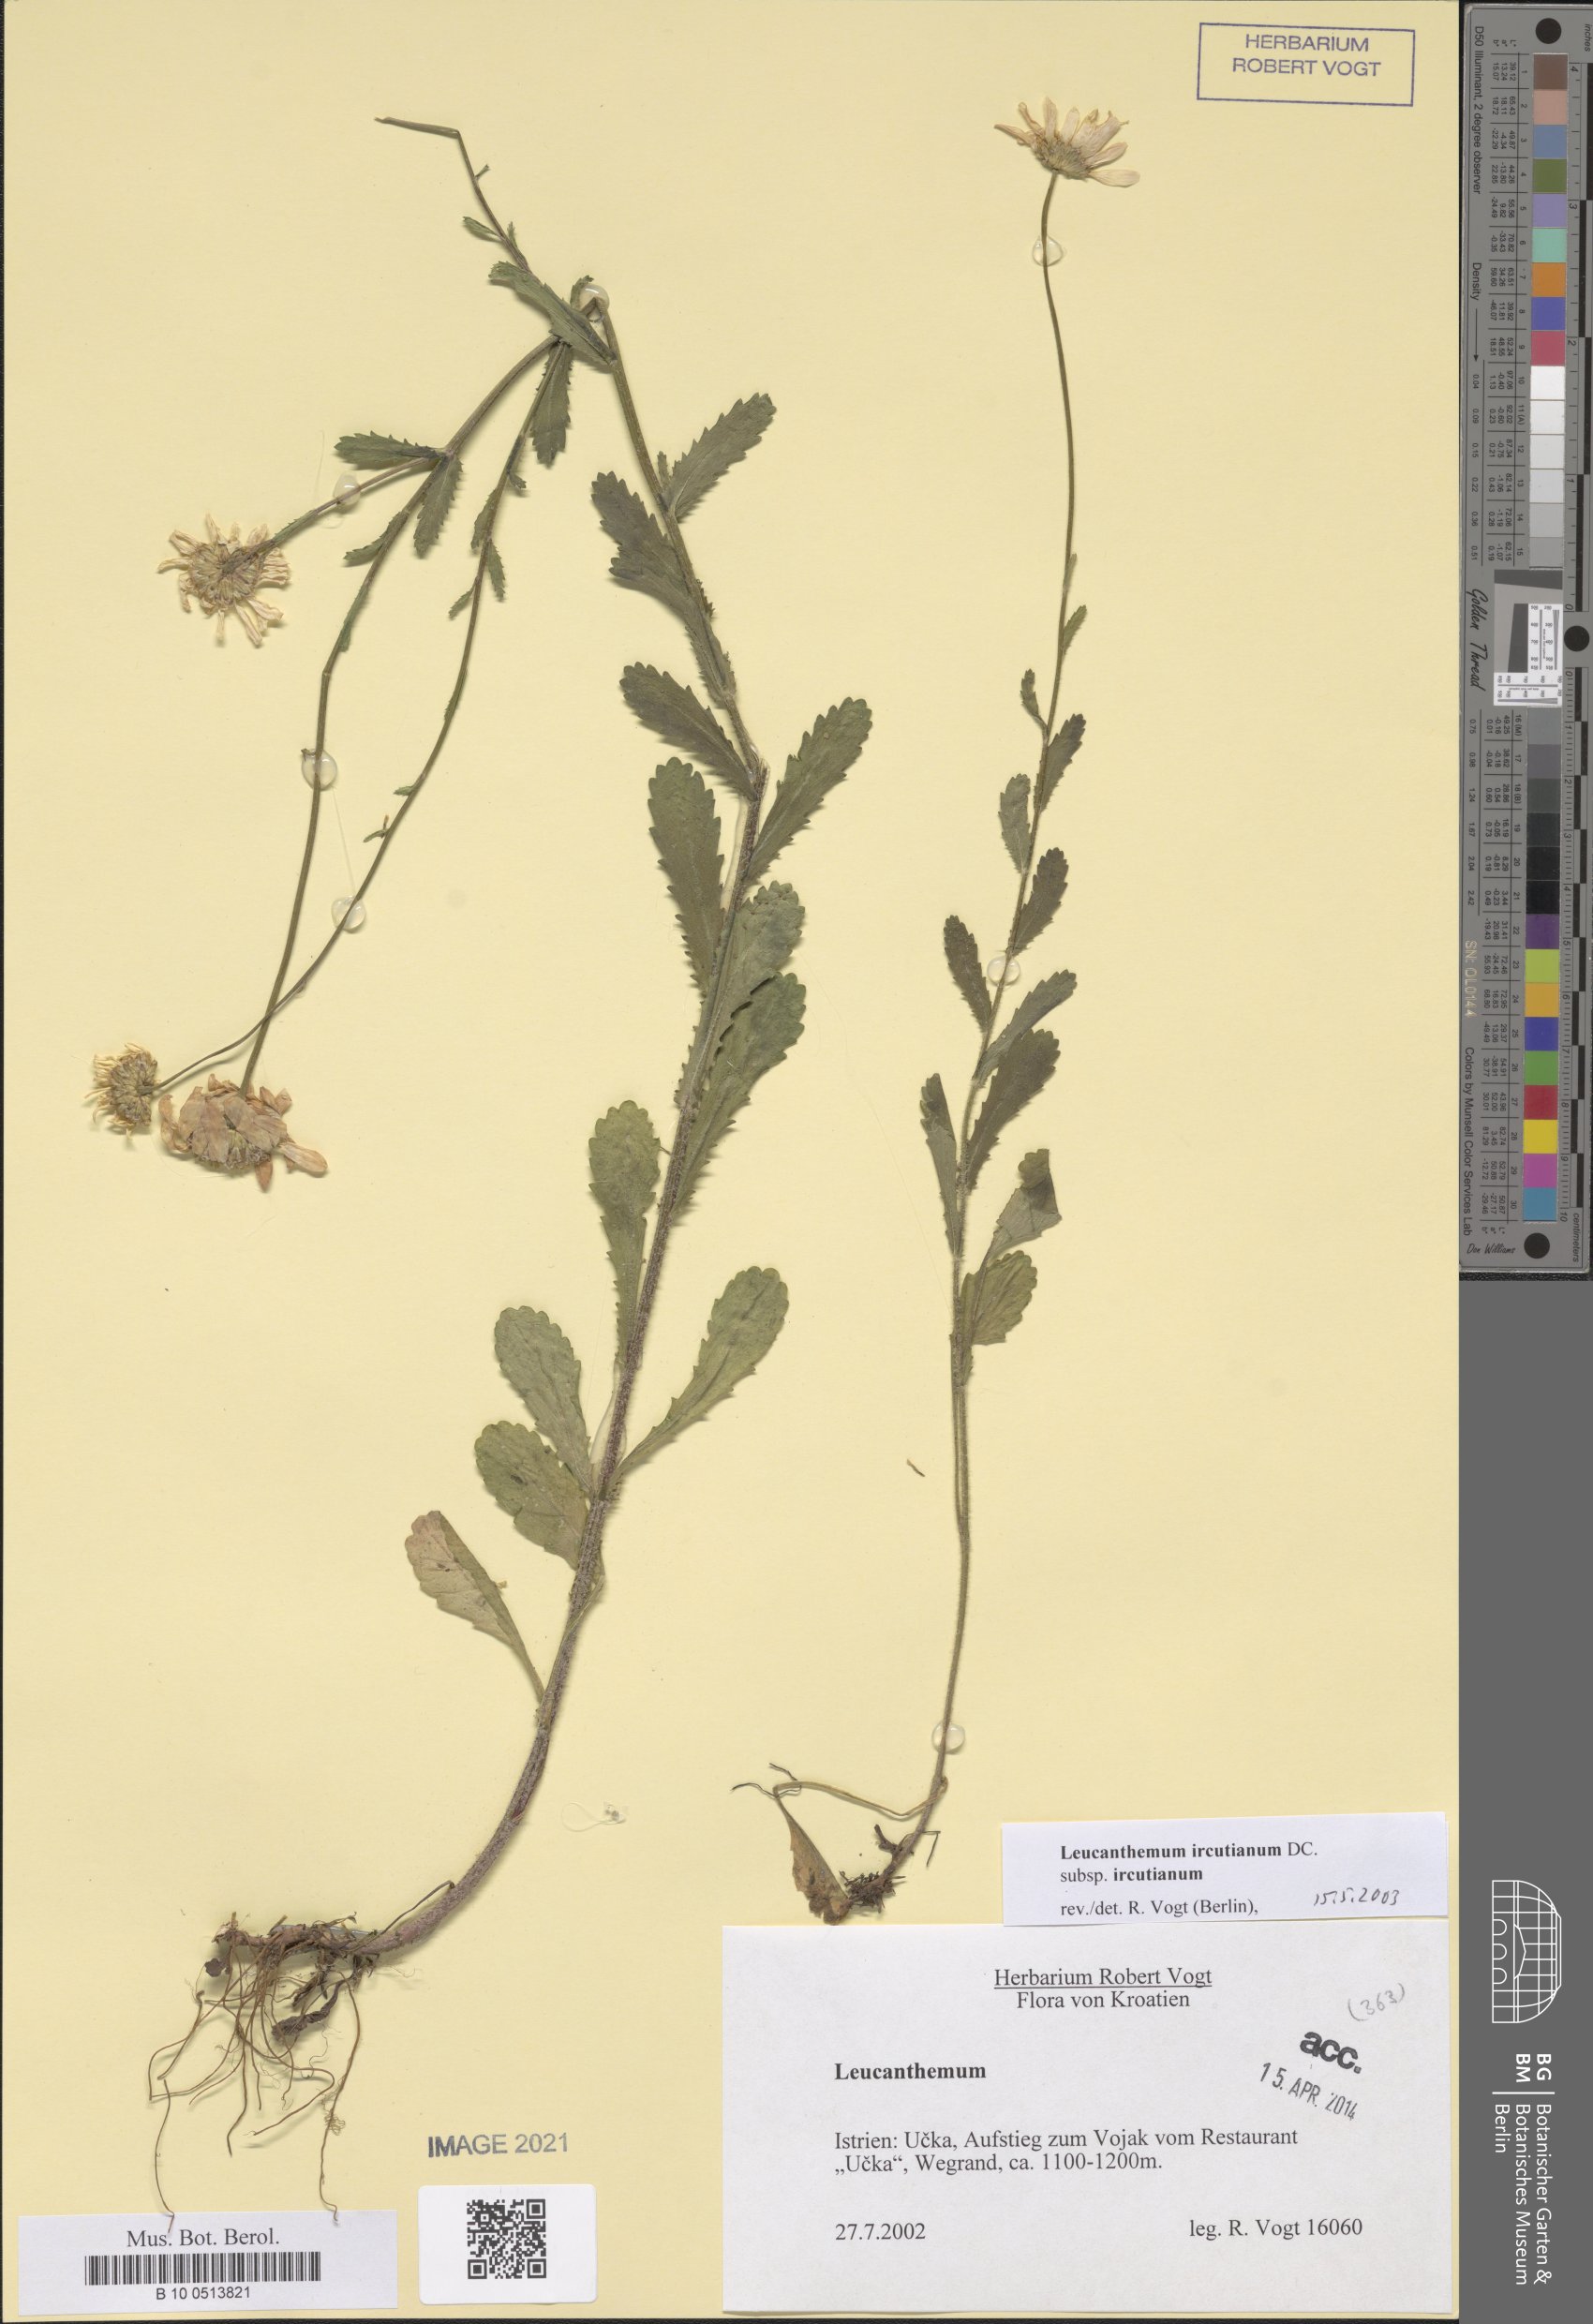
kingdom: Plantae
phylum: Tracheophyta
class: Magnoliopsida
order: Asterales
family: Asteraceae
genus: Leucanthemum
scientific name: Leucanthemum ircutianum
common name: Daisy
